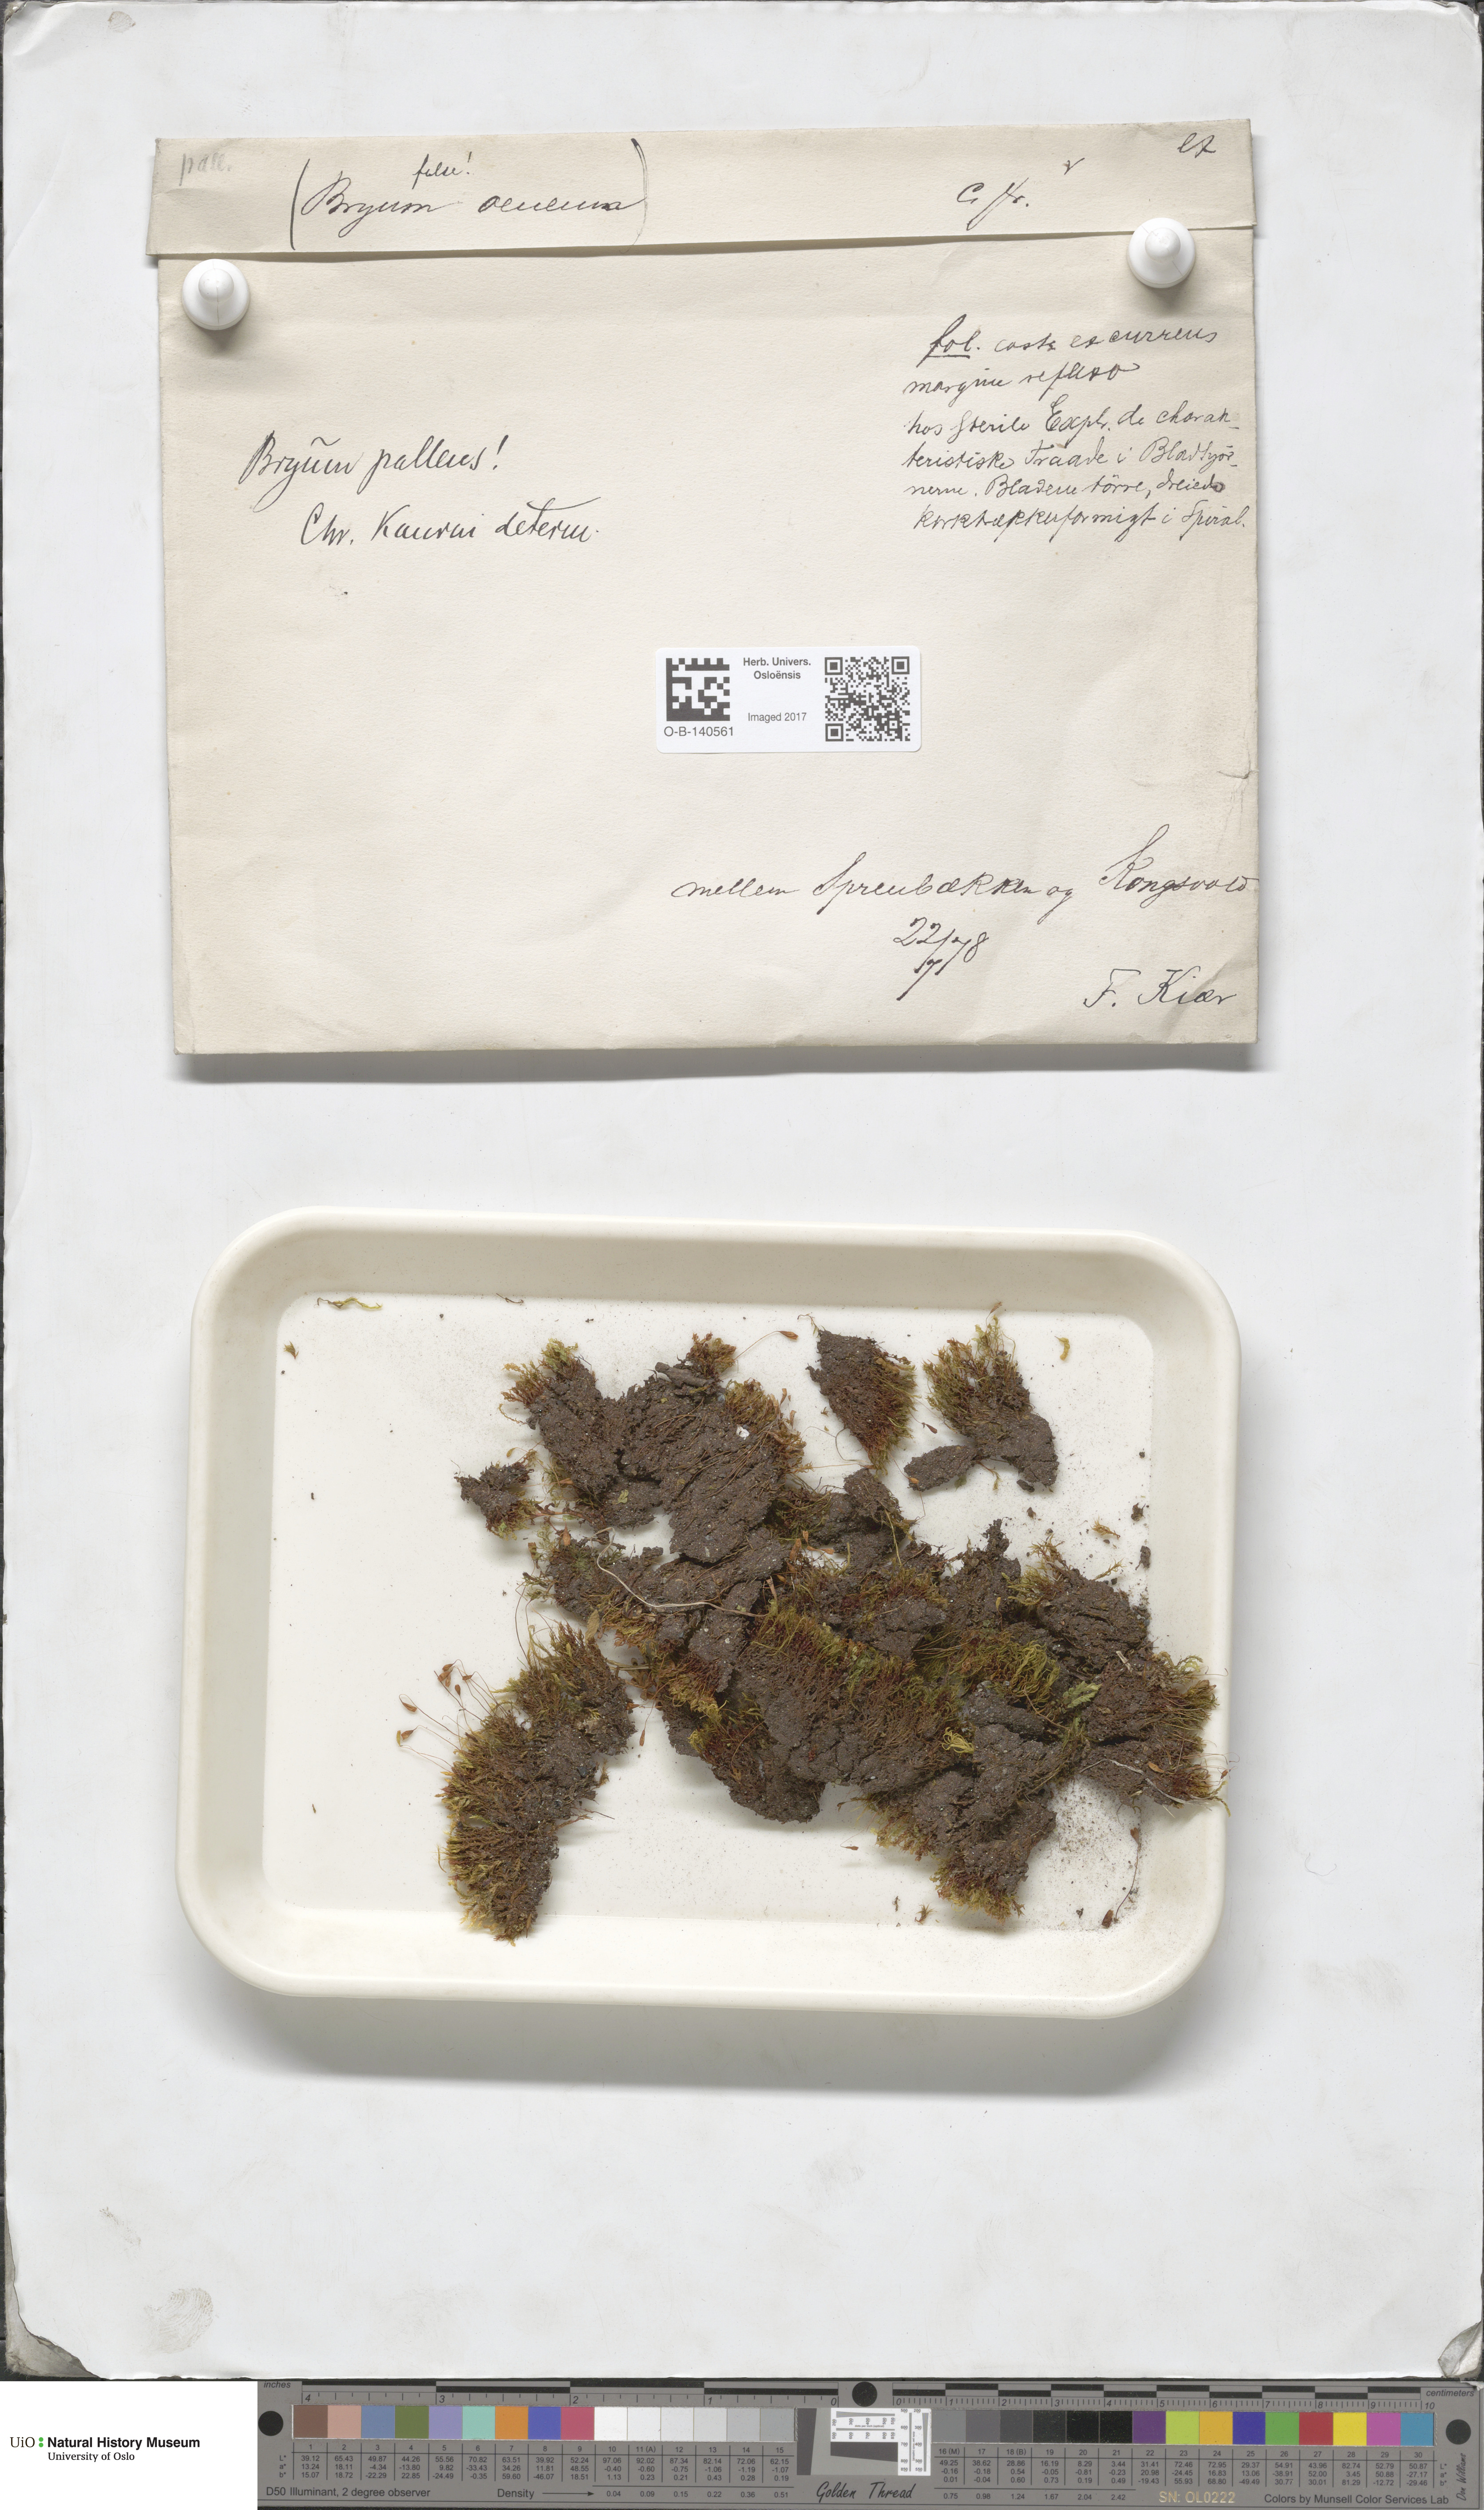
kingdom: Plantae
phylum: Bryophyta
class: Bryopsida
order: Bryales
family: Bryaceae
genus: Ptychostomum
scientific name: Ptychostomum pallens
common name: Pale thread-moss
